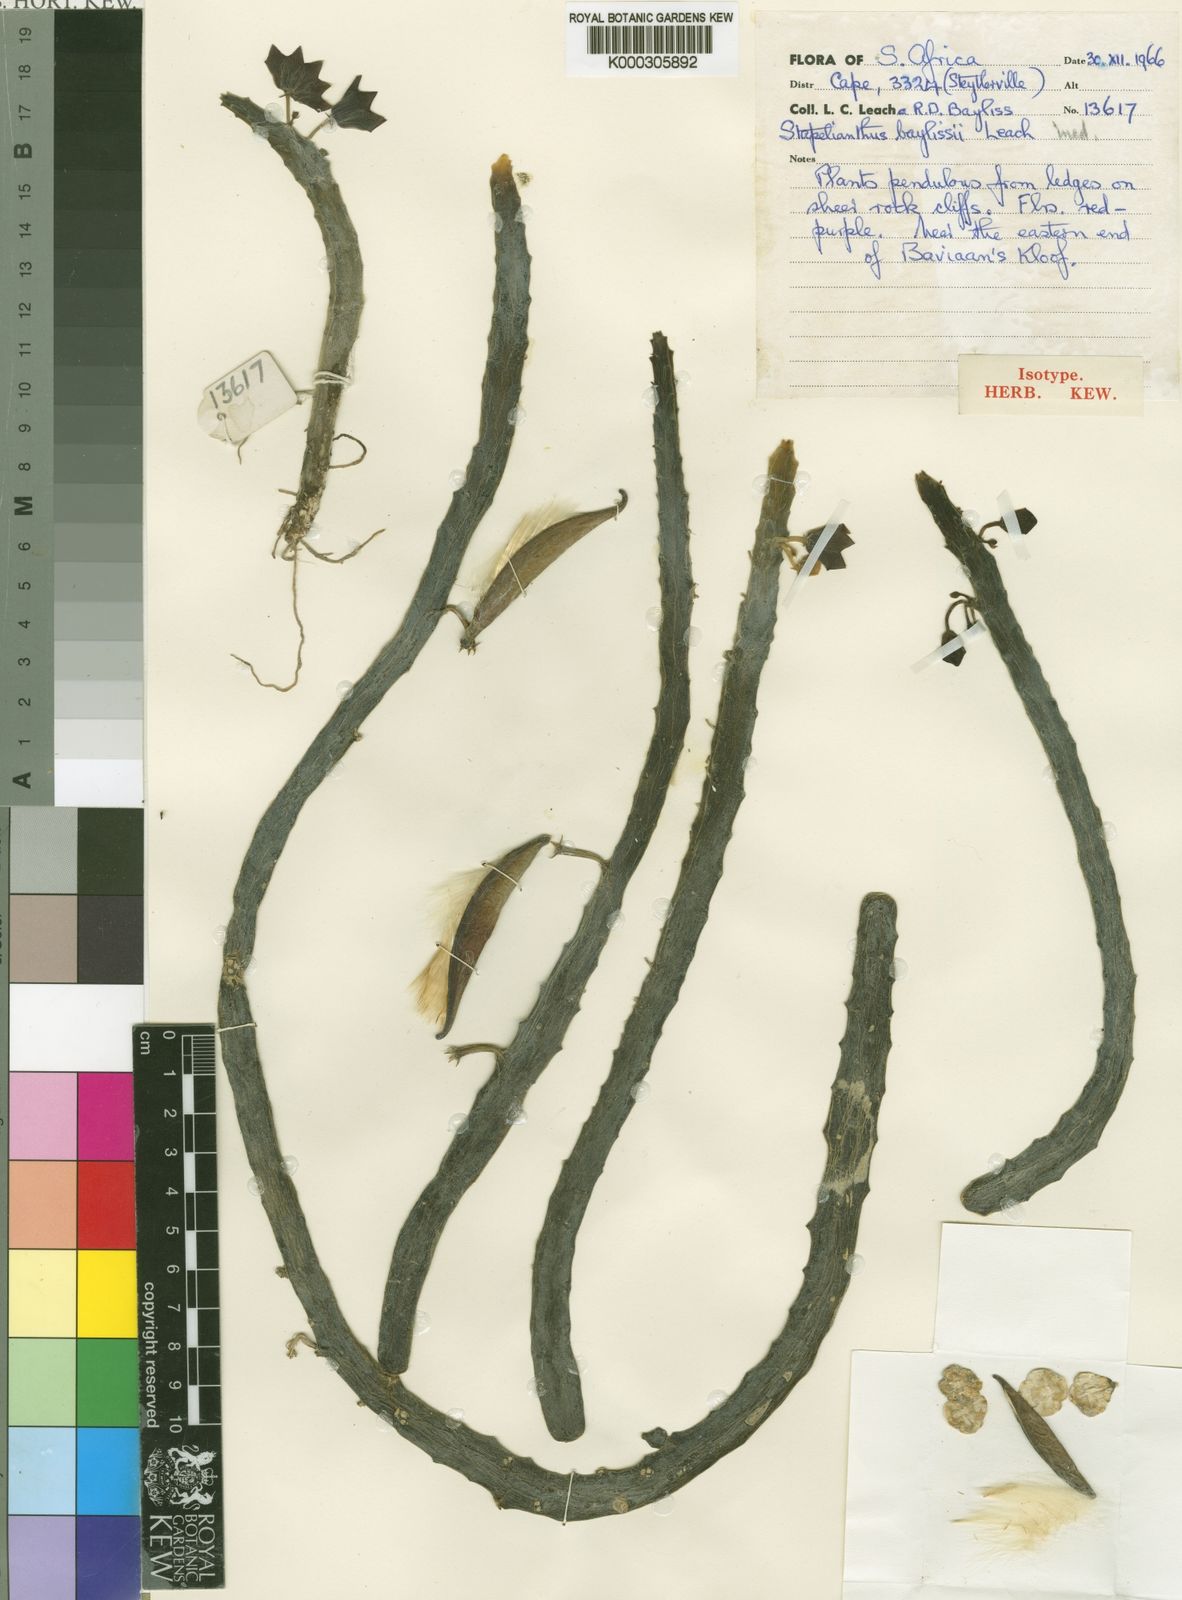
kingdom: Plantae
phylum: Tracheophyta
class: Magnoliopsida
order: Gentianales
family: Apocynaceae
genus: Ceropegia
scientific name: Ceropegia baylissii
